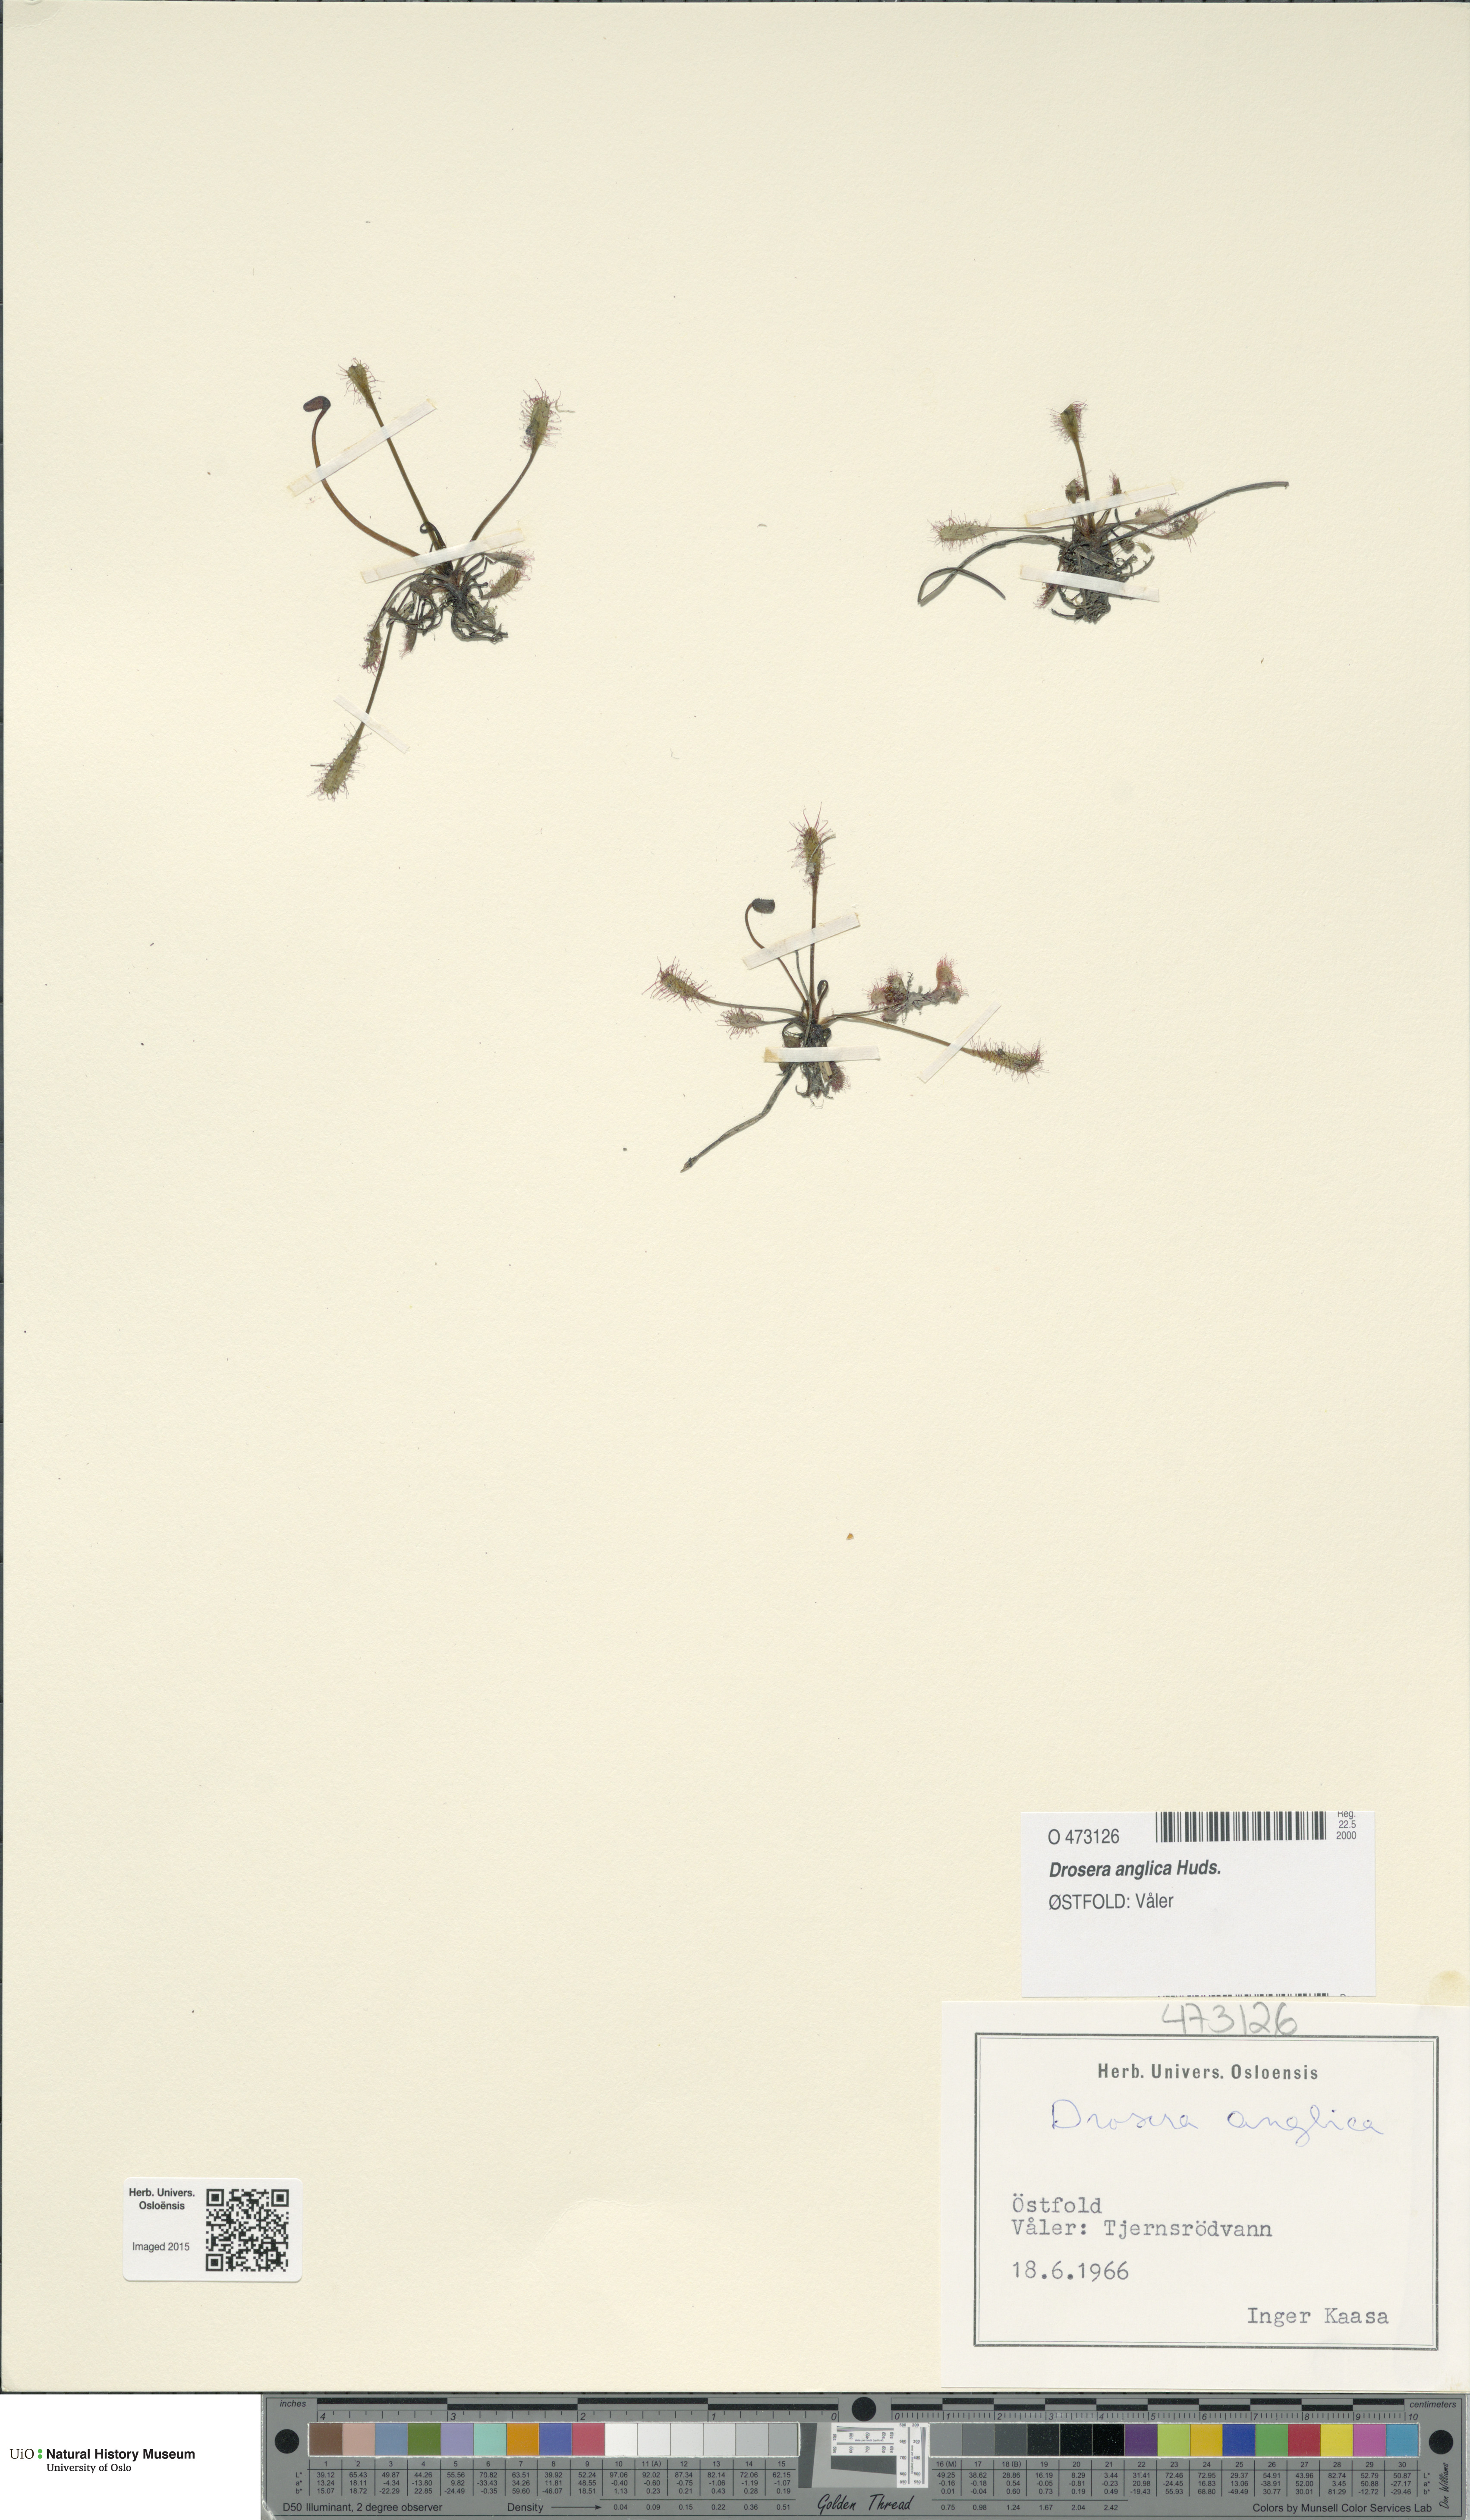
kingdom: Plantae
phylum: Tracheophyta
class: Magnoliopsida
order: Caryophyllales
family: Droseraceae
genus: Drosera
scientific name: Drosera anglica
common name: Great sundew
